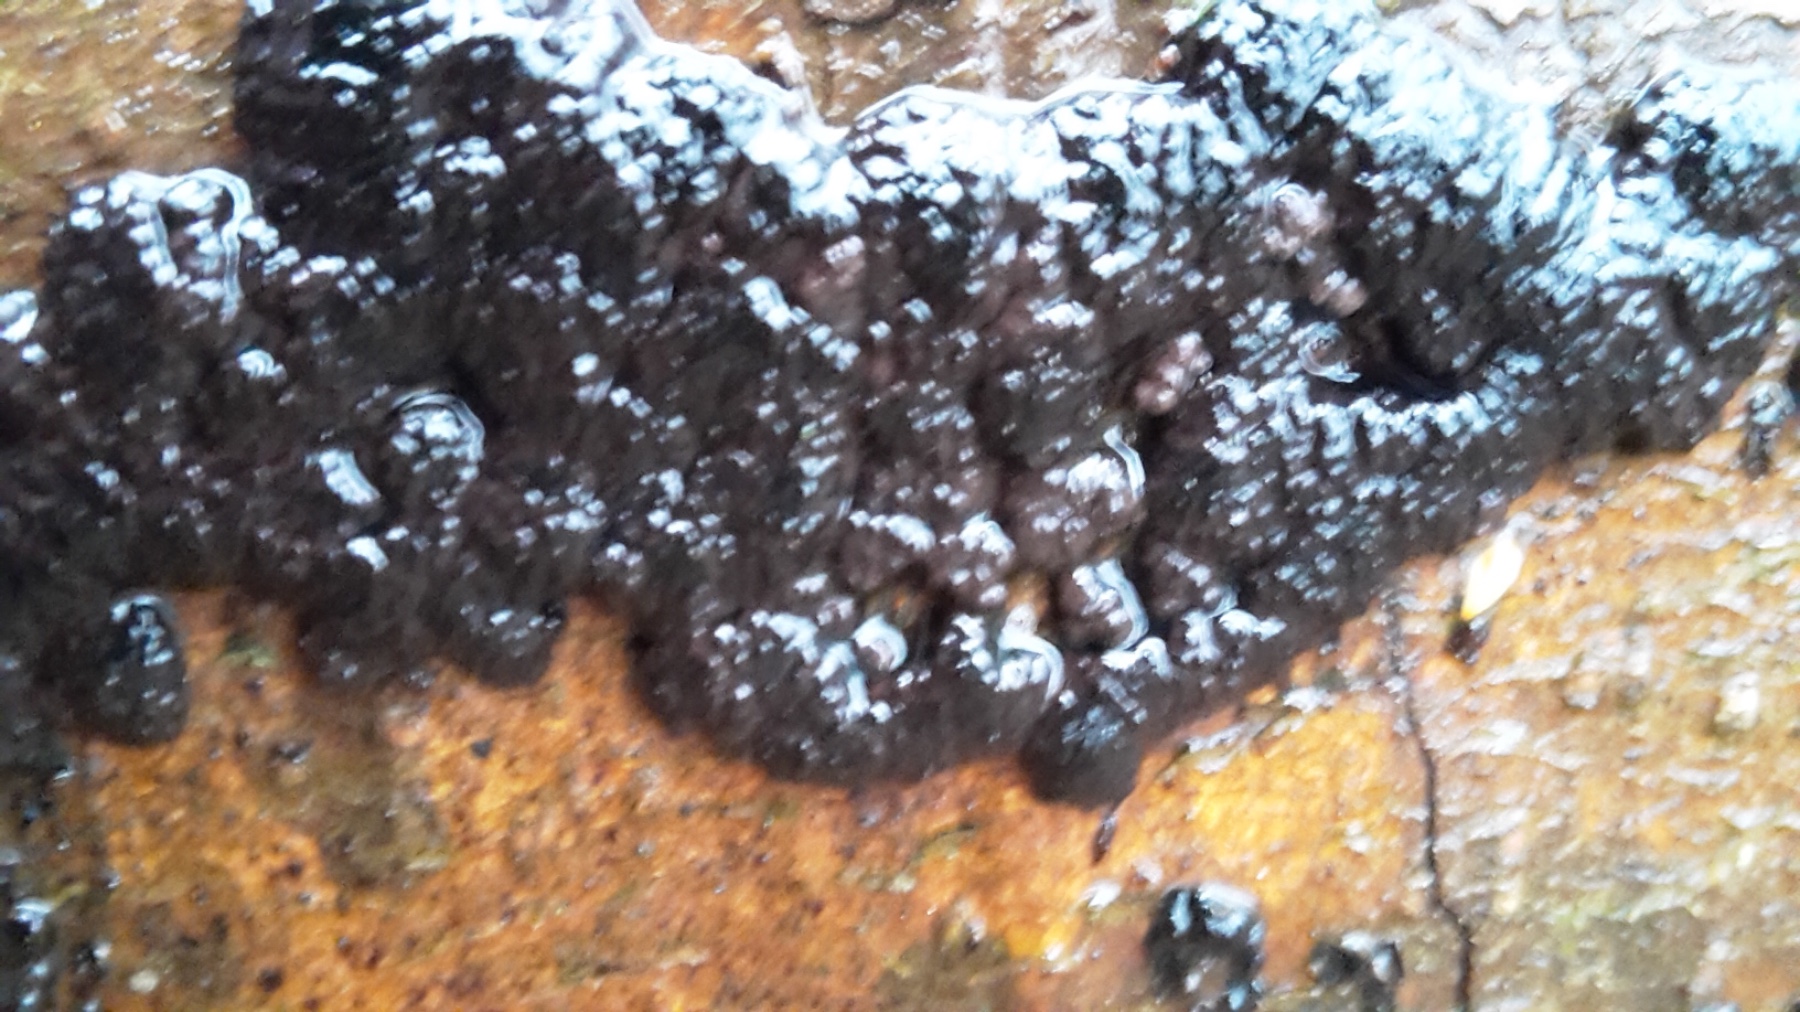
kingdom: Fungi
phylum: Ascomycota
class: Sordariomycetes
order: Xylariales
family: Hypoxylaceae
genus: Jackrogersella
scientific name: Jackrogersella cohaerens
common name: sammenflydende kulbær
